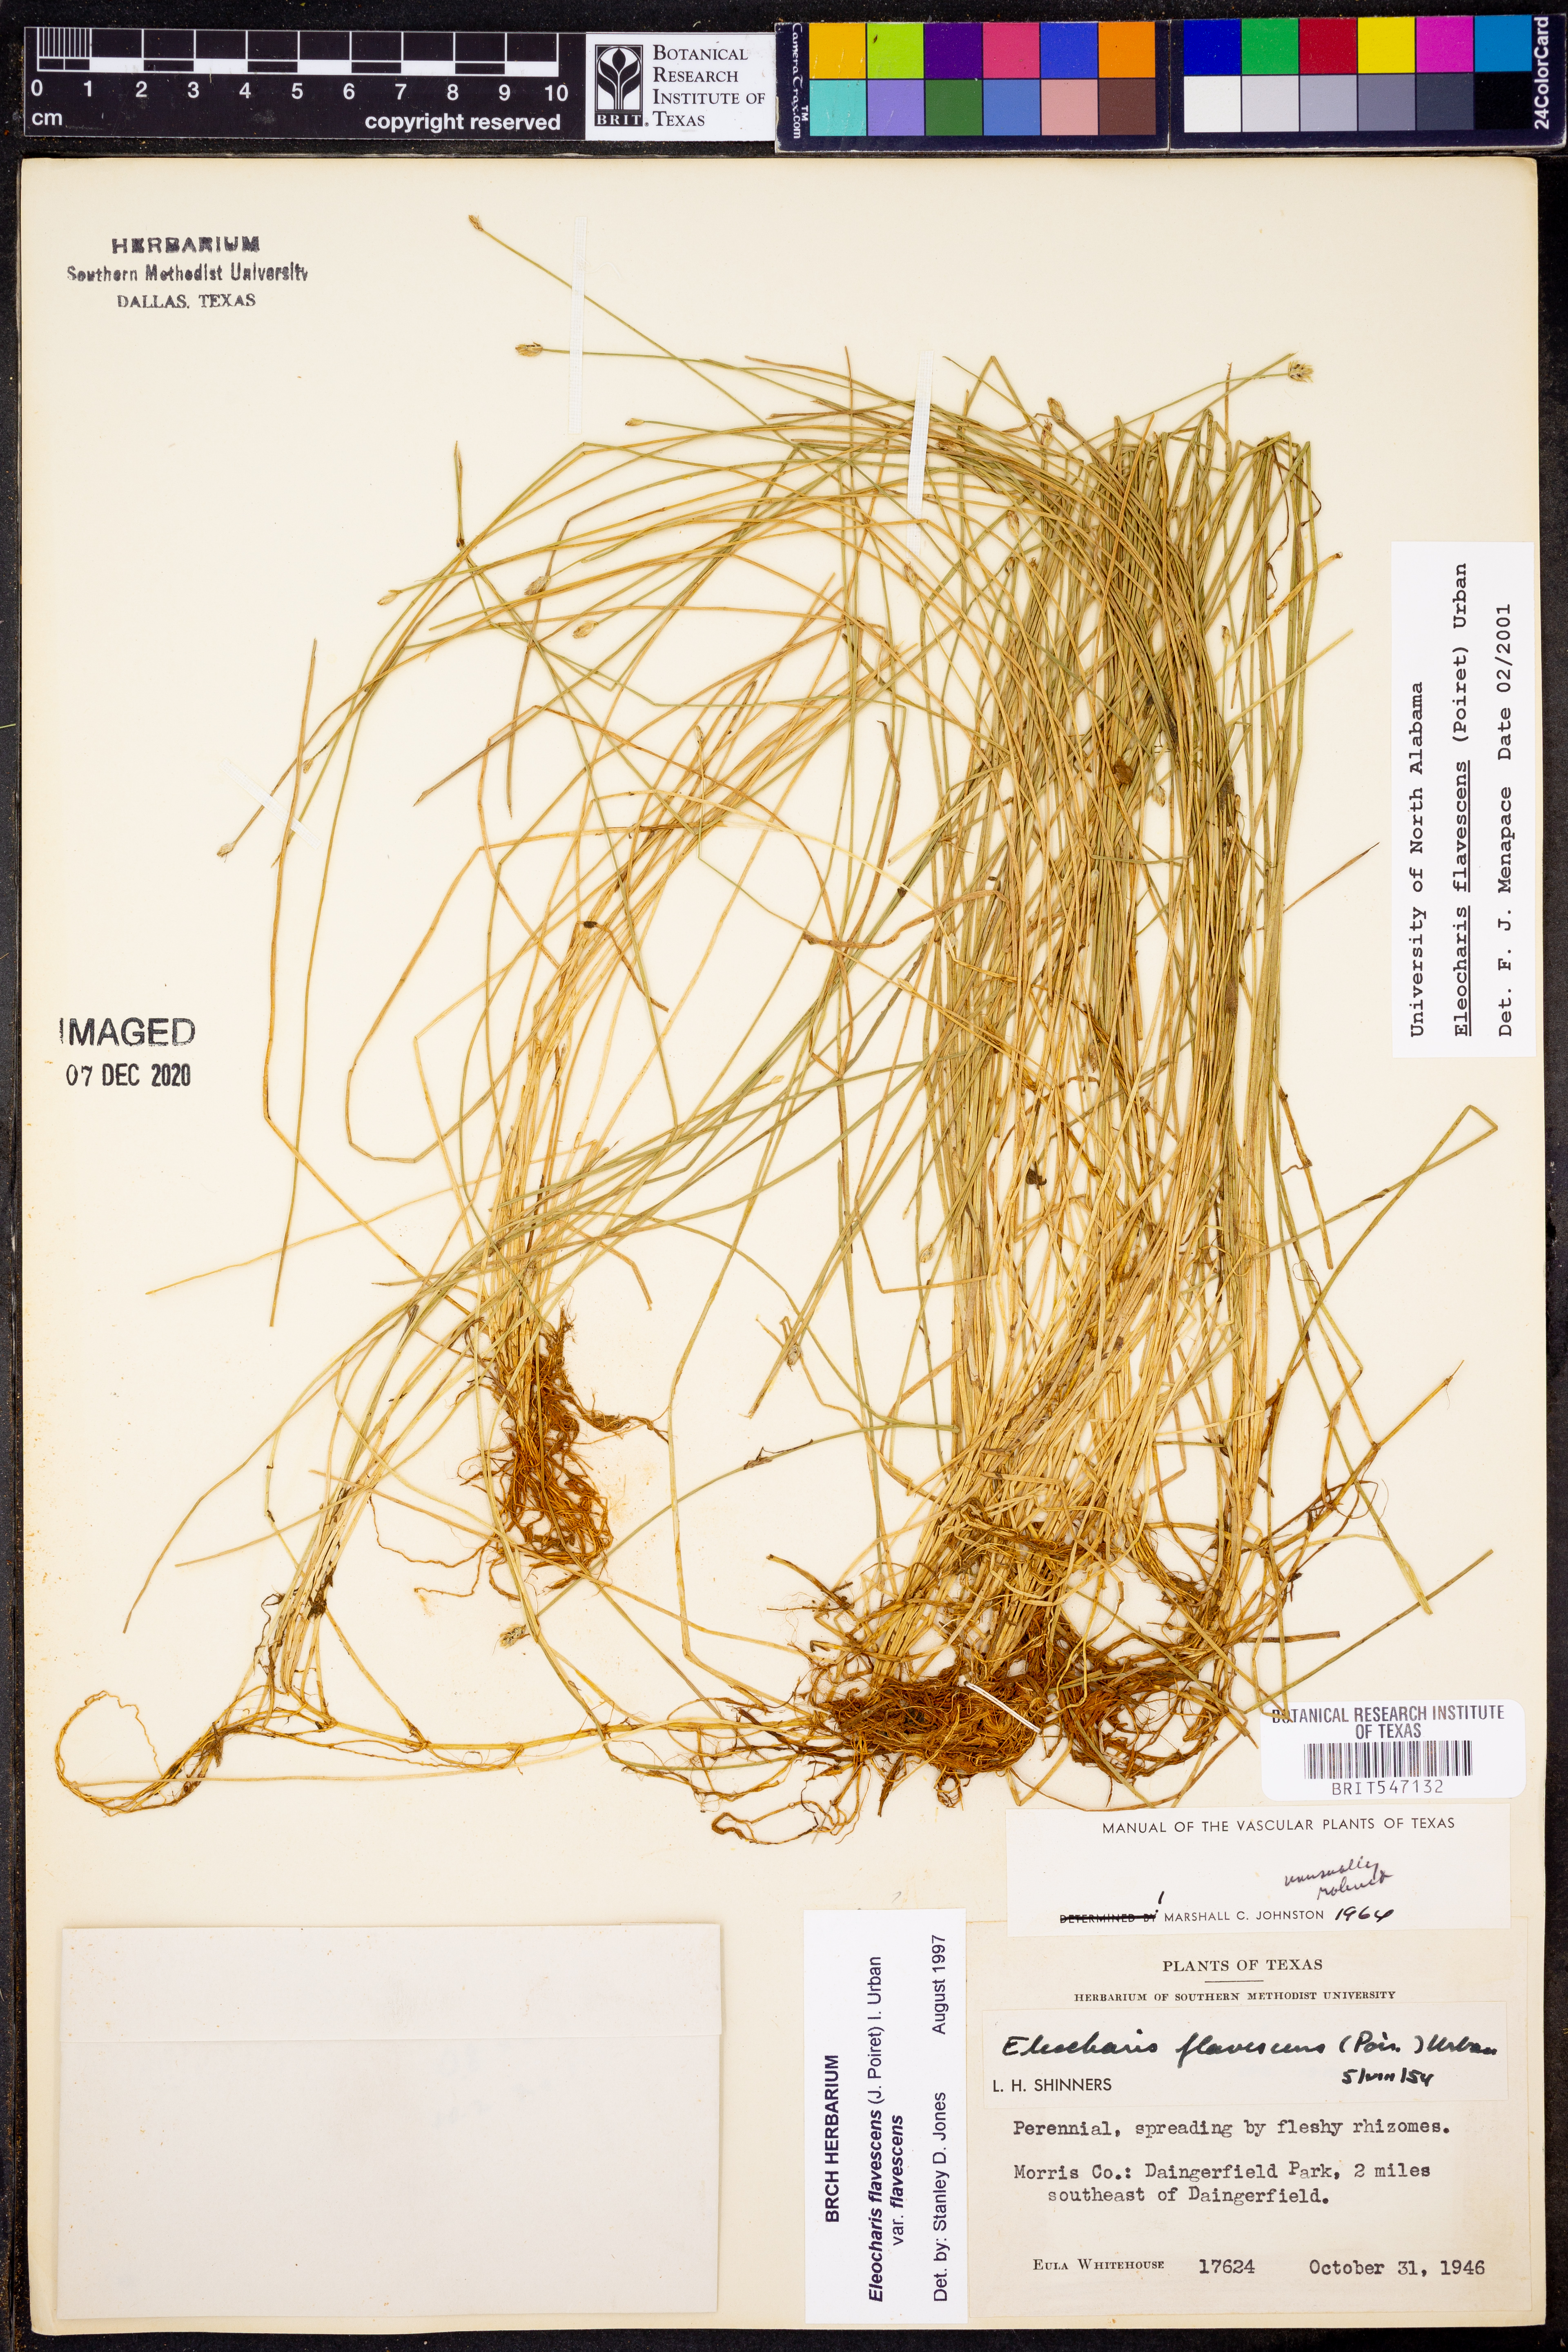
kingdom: Plantae
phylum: Tracheophyta
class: Liliopsida
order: Poales
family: Cyperaceae
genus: Eleocharis
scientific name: Eleocharis flavescens
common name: Yellow spikerush
